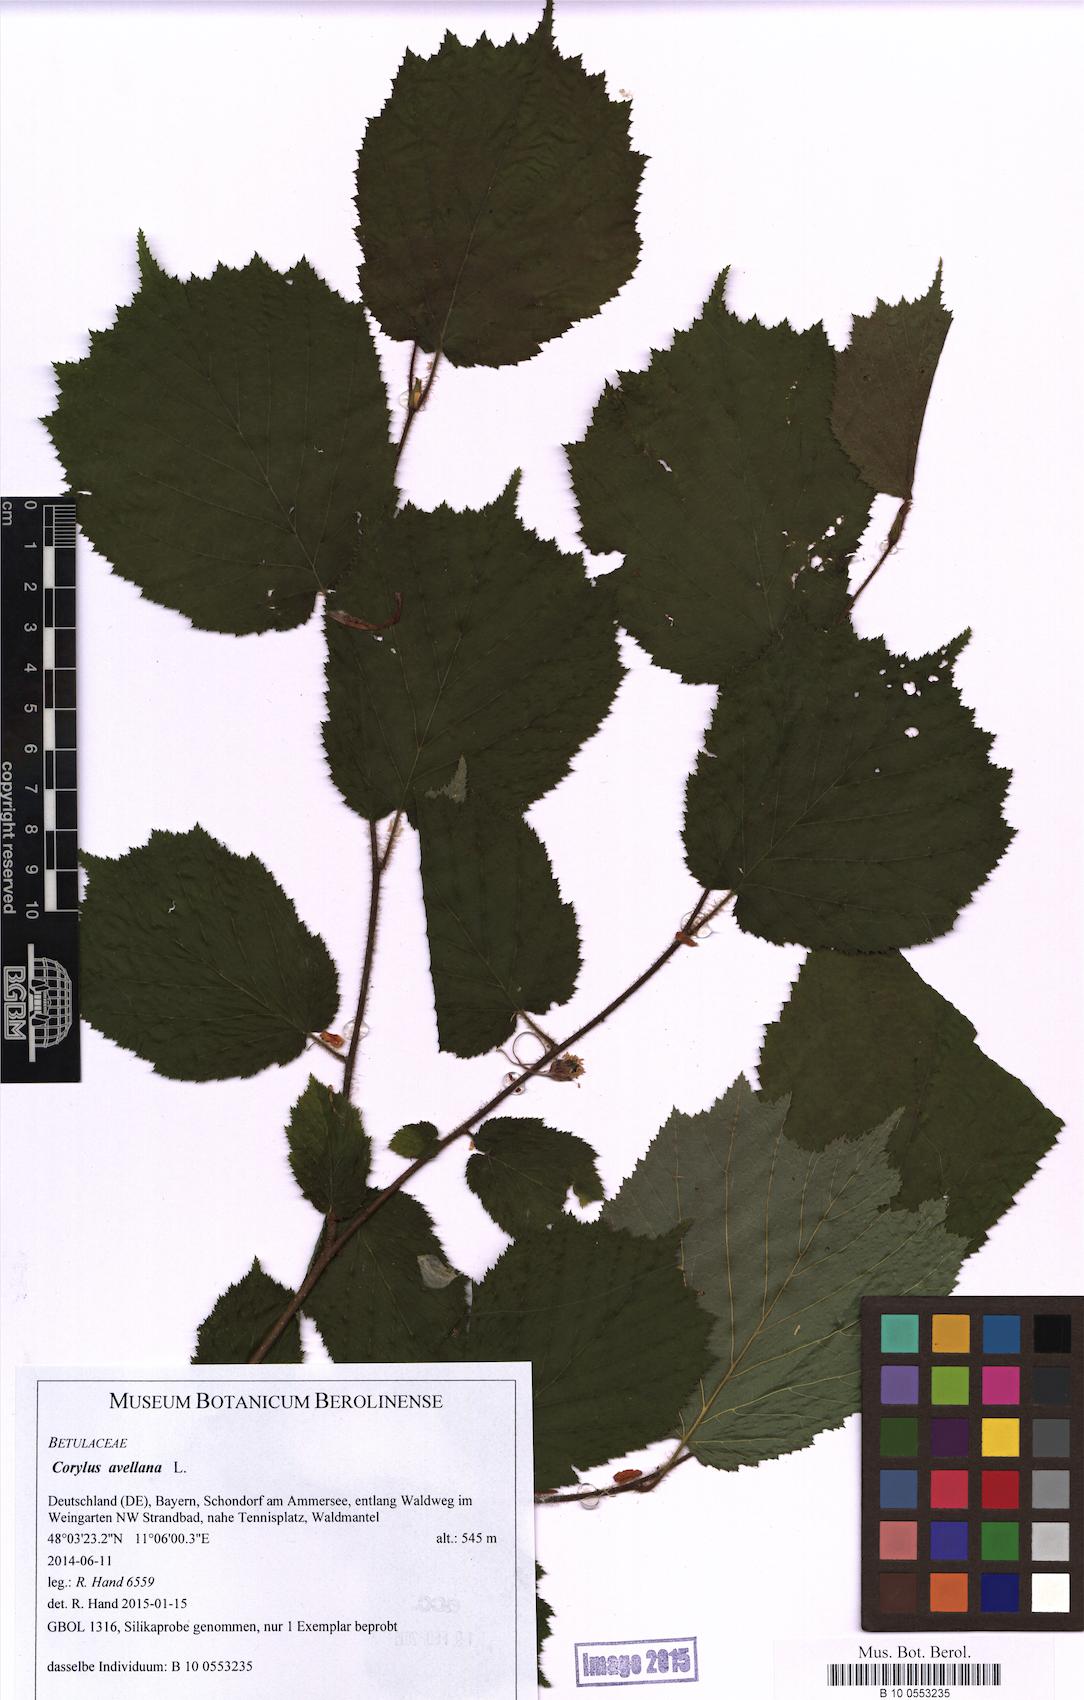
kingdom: Plantae
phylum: Tracheophyta
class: Magnoliopsida
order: Fagales
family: Betulaceae
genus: Corylus
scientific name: Corylus avellana
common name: European hazel
